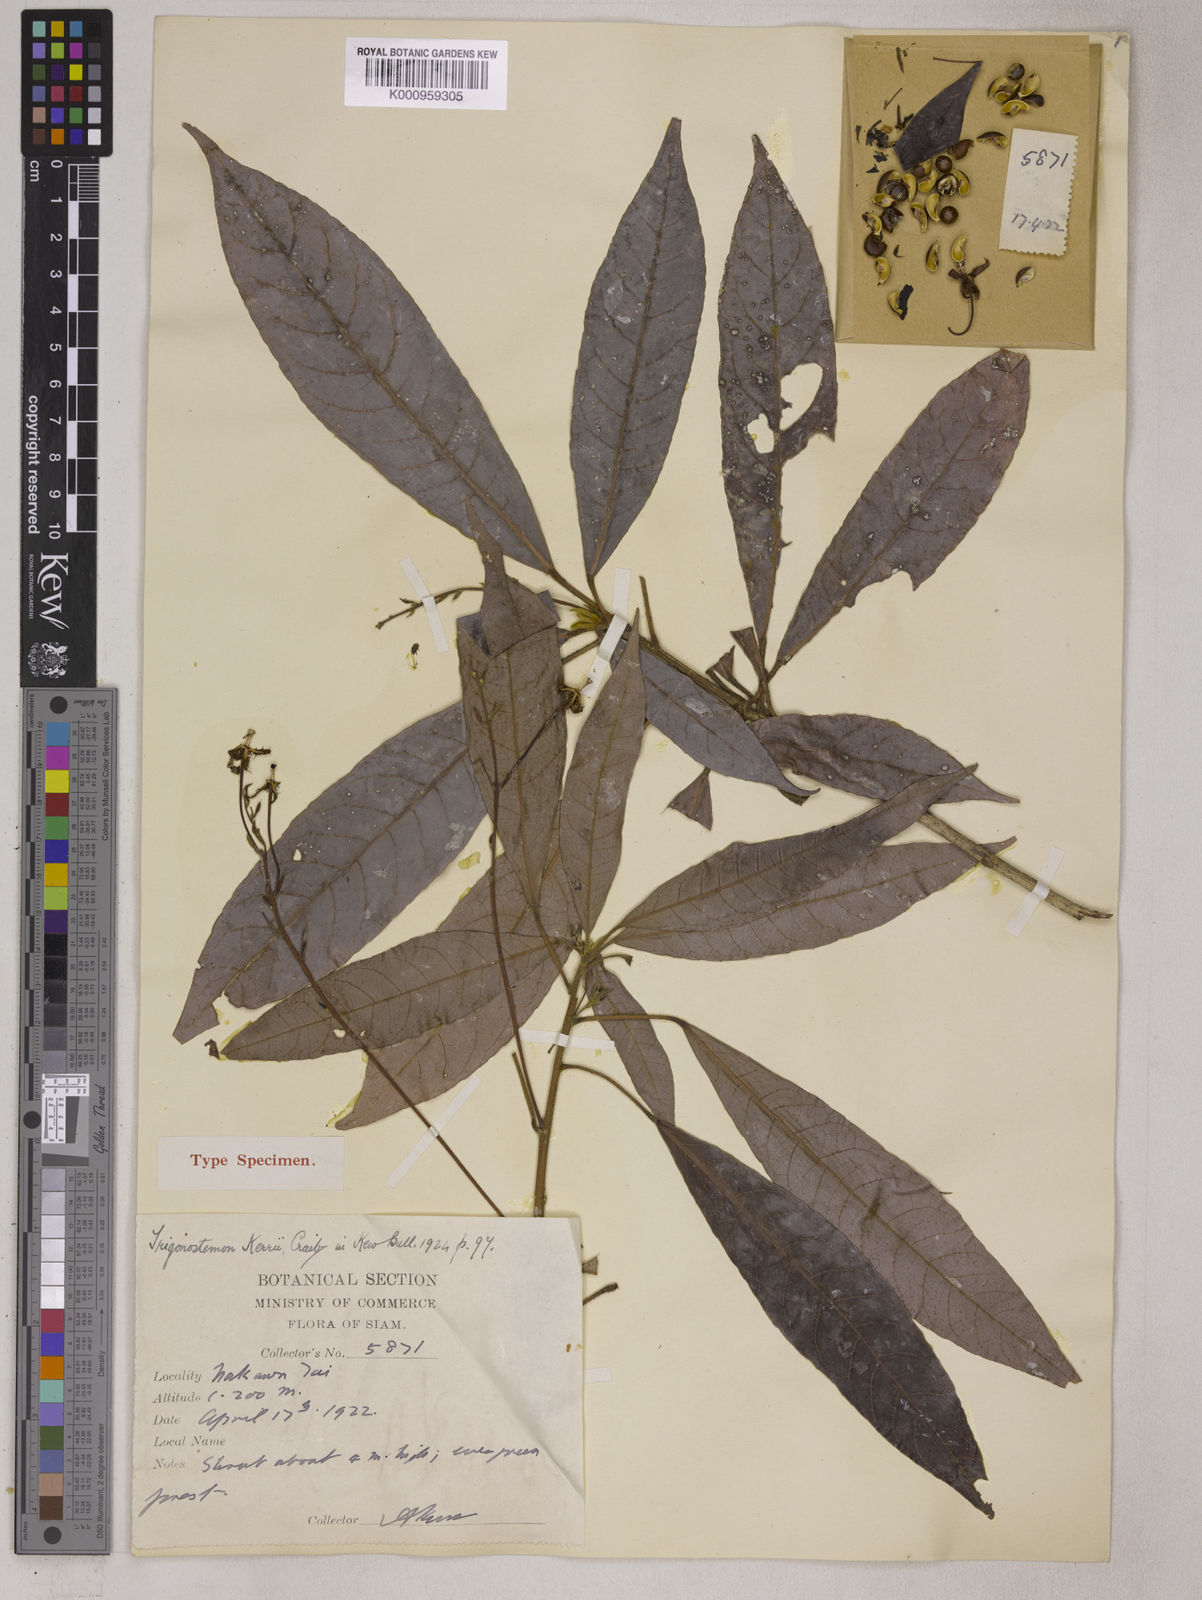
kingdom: Plantae
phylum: Tracheophyta
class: Magnoliopsida
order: Malpighiales
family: Euphorbiaceae
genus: Trigonostemon
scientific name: Trigonostemon kerrii
